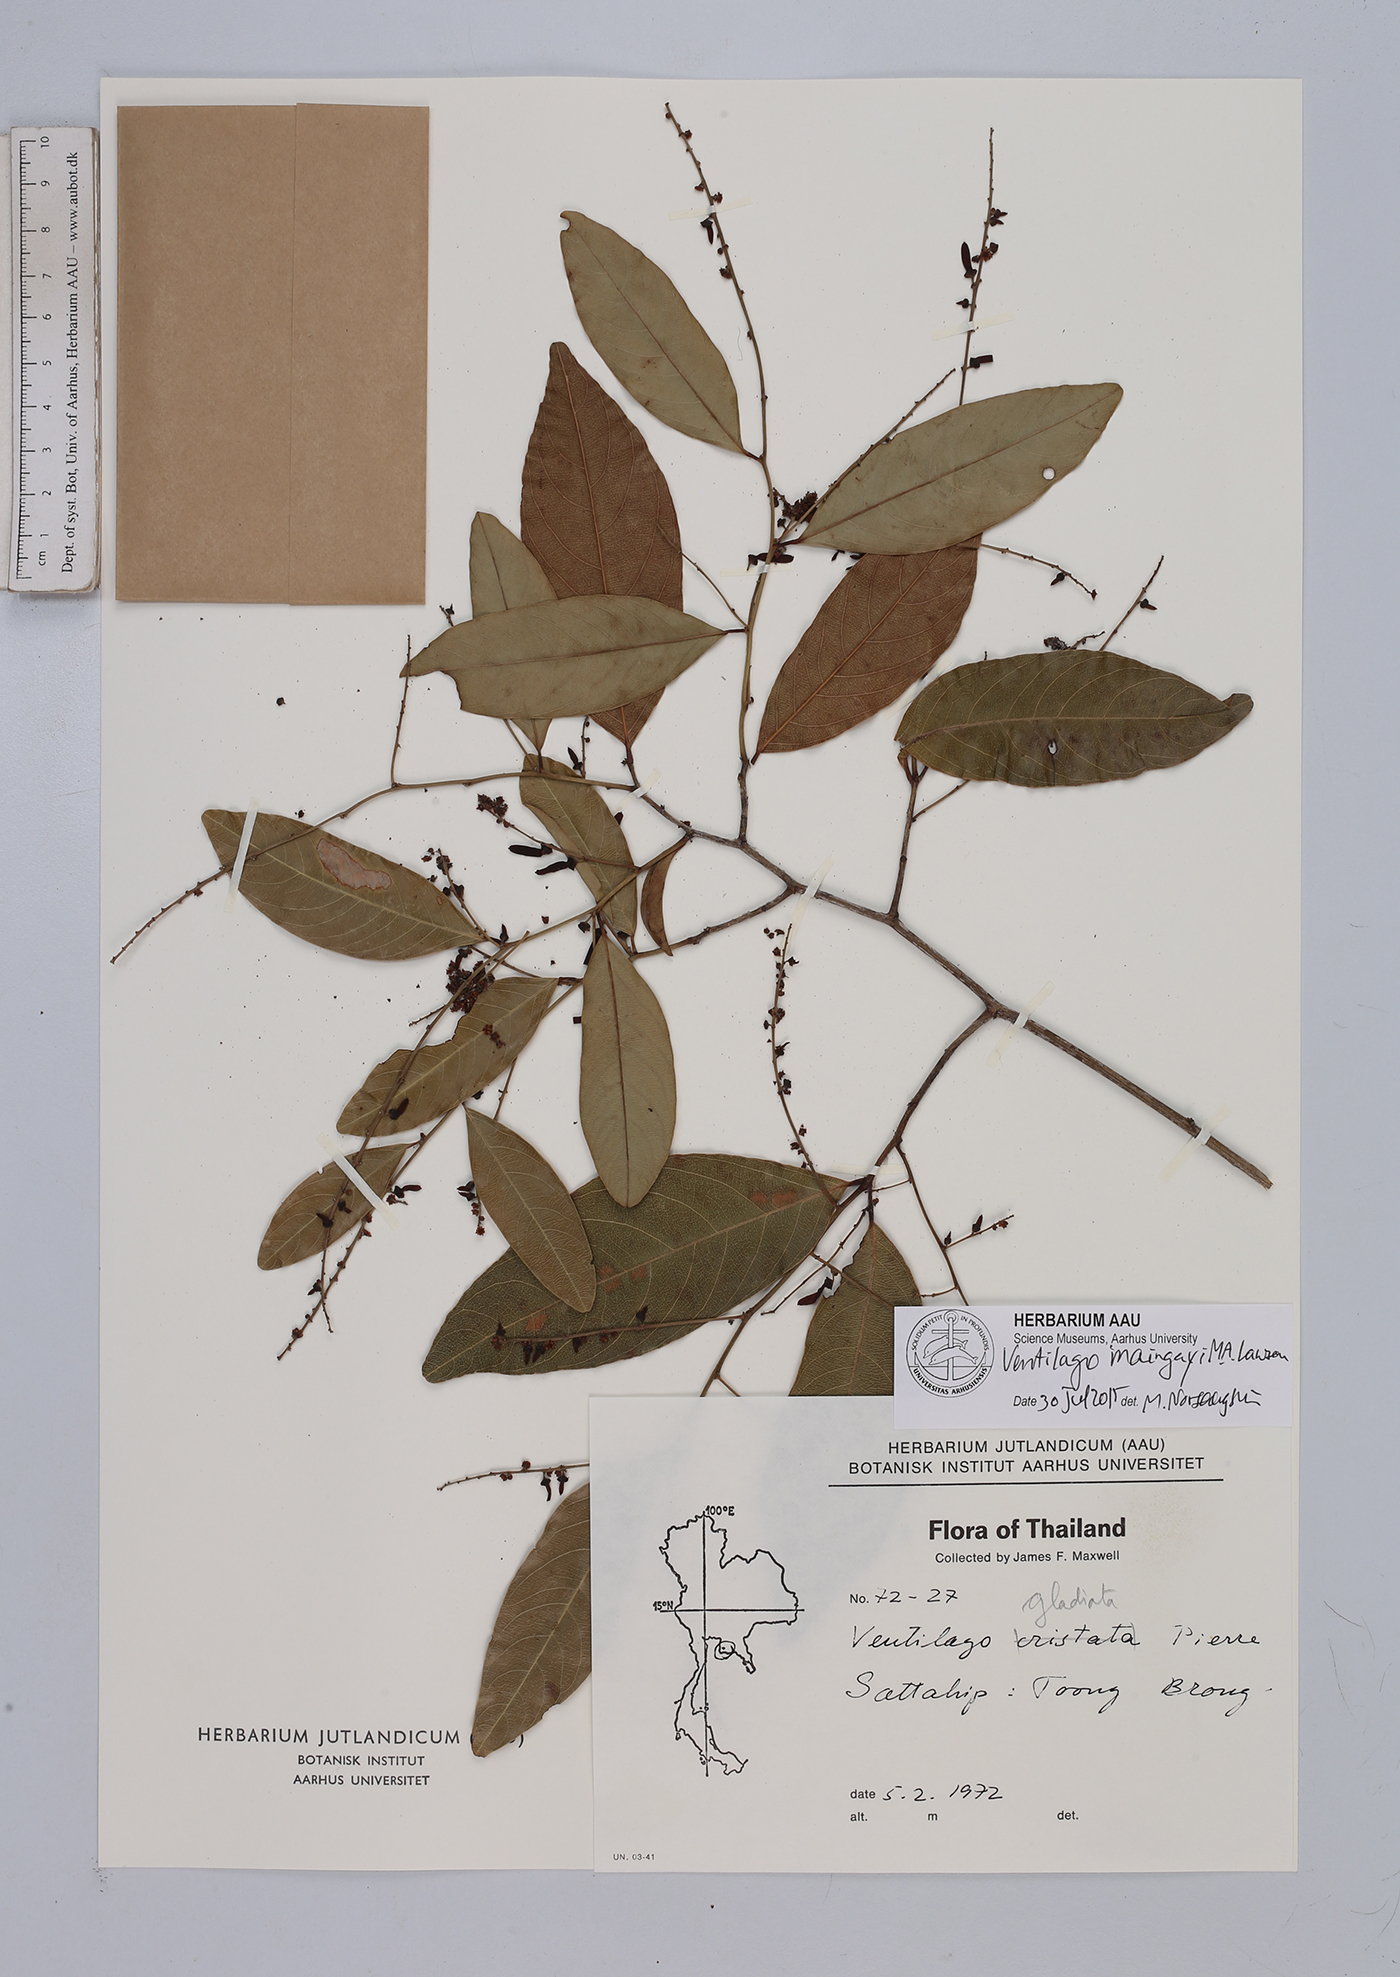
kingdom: Plantae
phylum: Tracheophyta
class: Magnoliopsida
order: Rosales
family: Rhamnaceae
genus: Ventilago
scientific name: Ventilago maingayi
